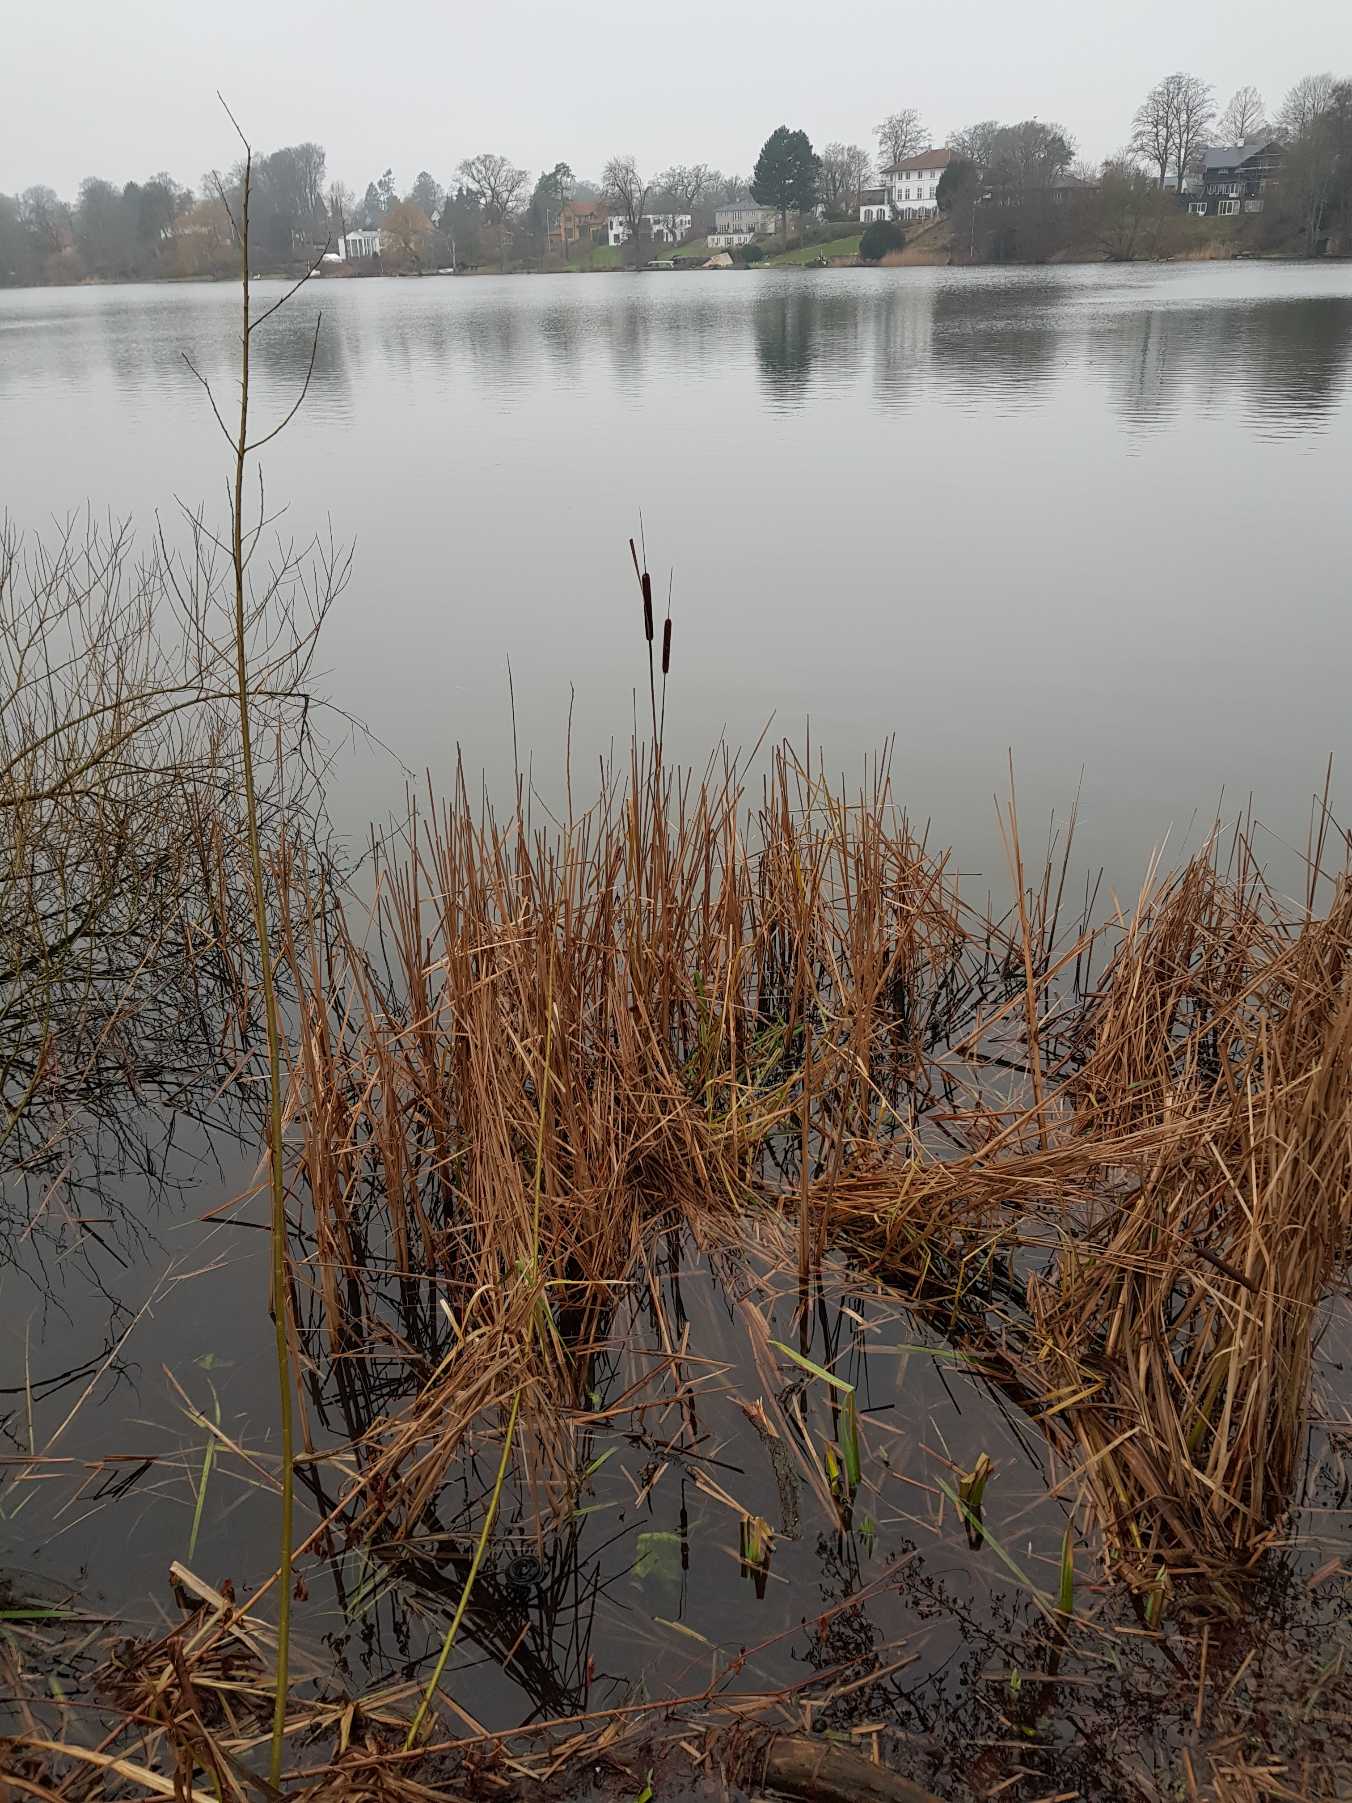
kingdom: Plantae
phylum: Tracheophyta
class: Liliopsida
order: Poales
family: Typhaceae
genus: Typha
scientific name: Typha angustifolia
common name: Smalbladet dunhammer
